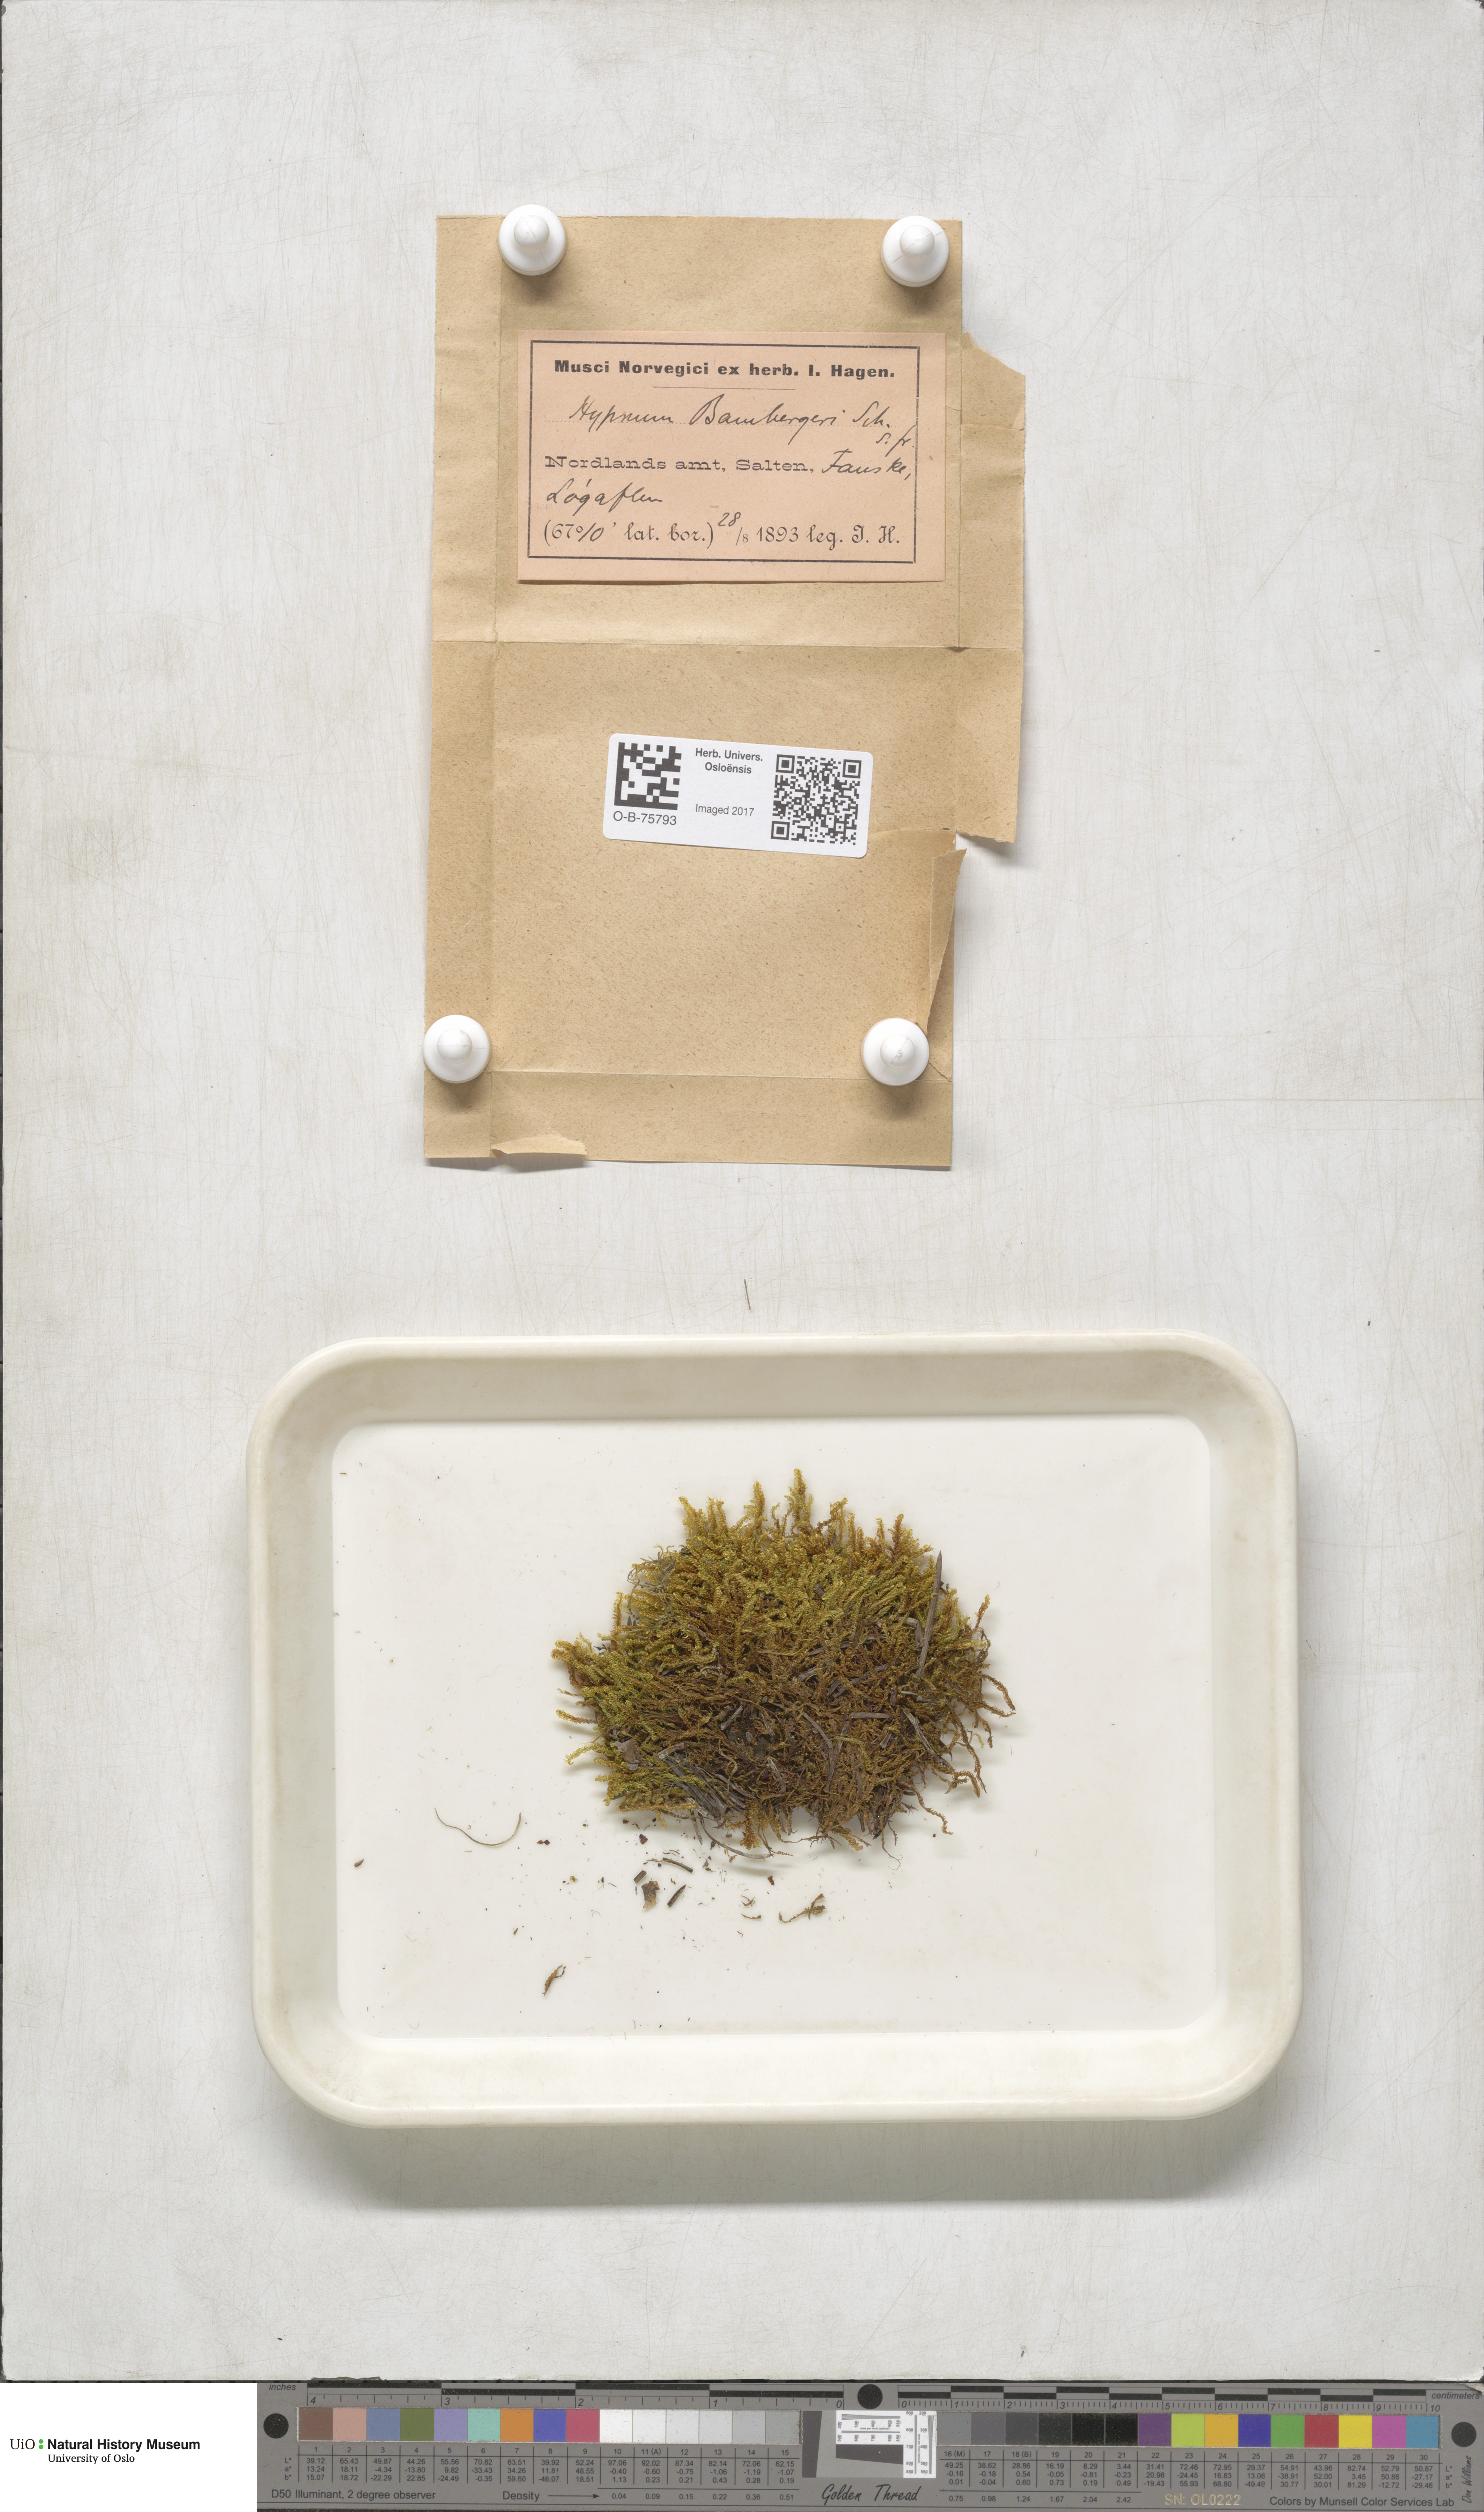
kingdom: Plantae
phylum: Bryophyta
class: Bryopsida
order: Hypnales
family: Amblystegiaceae
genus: Campylium
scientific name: Campylium bambergeri
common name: Golden plait-moss
